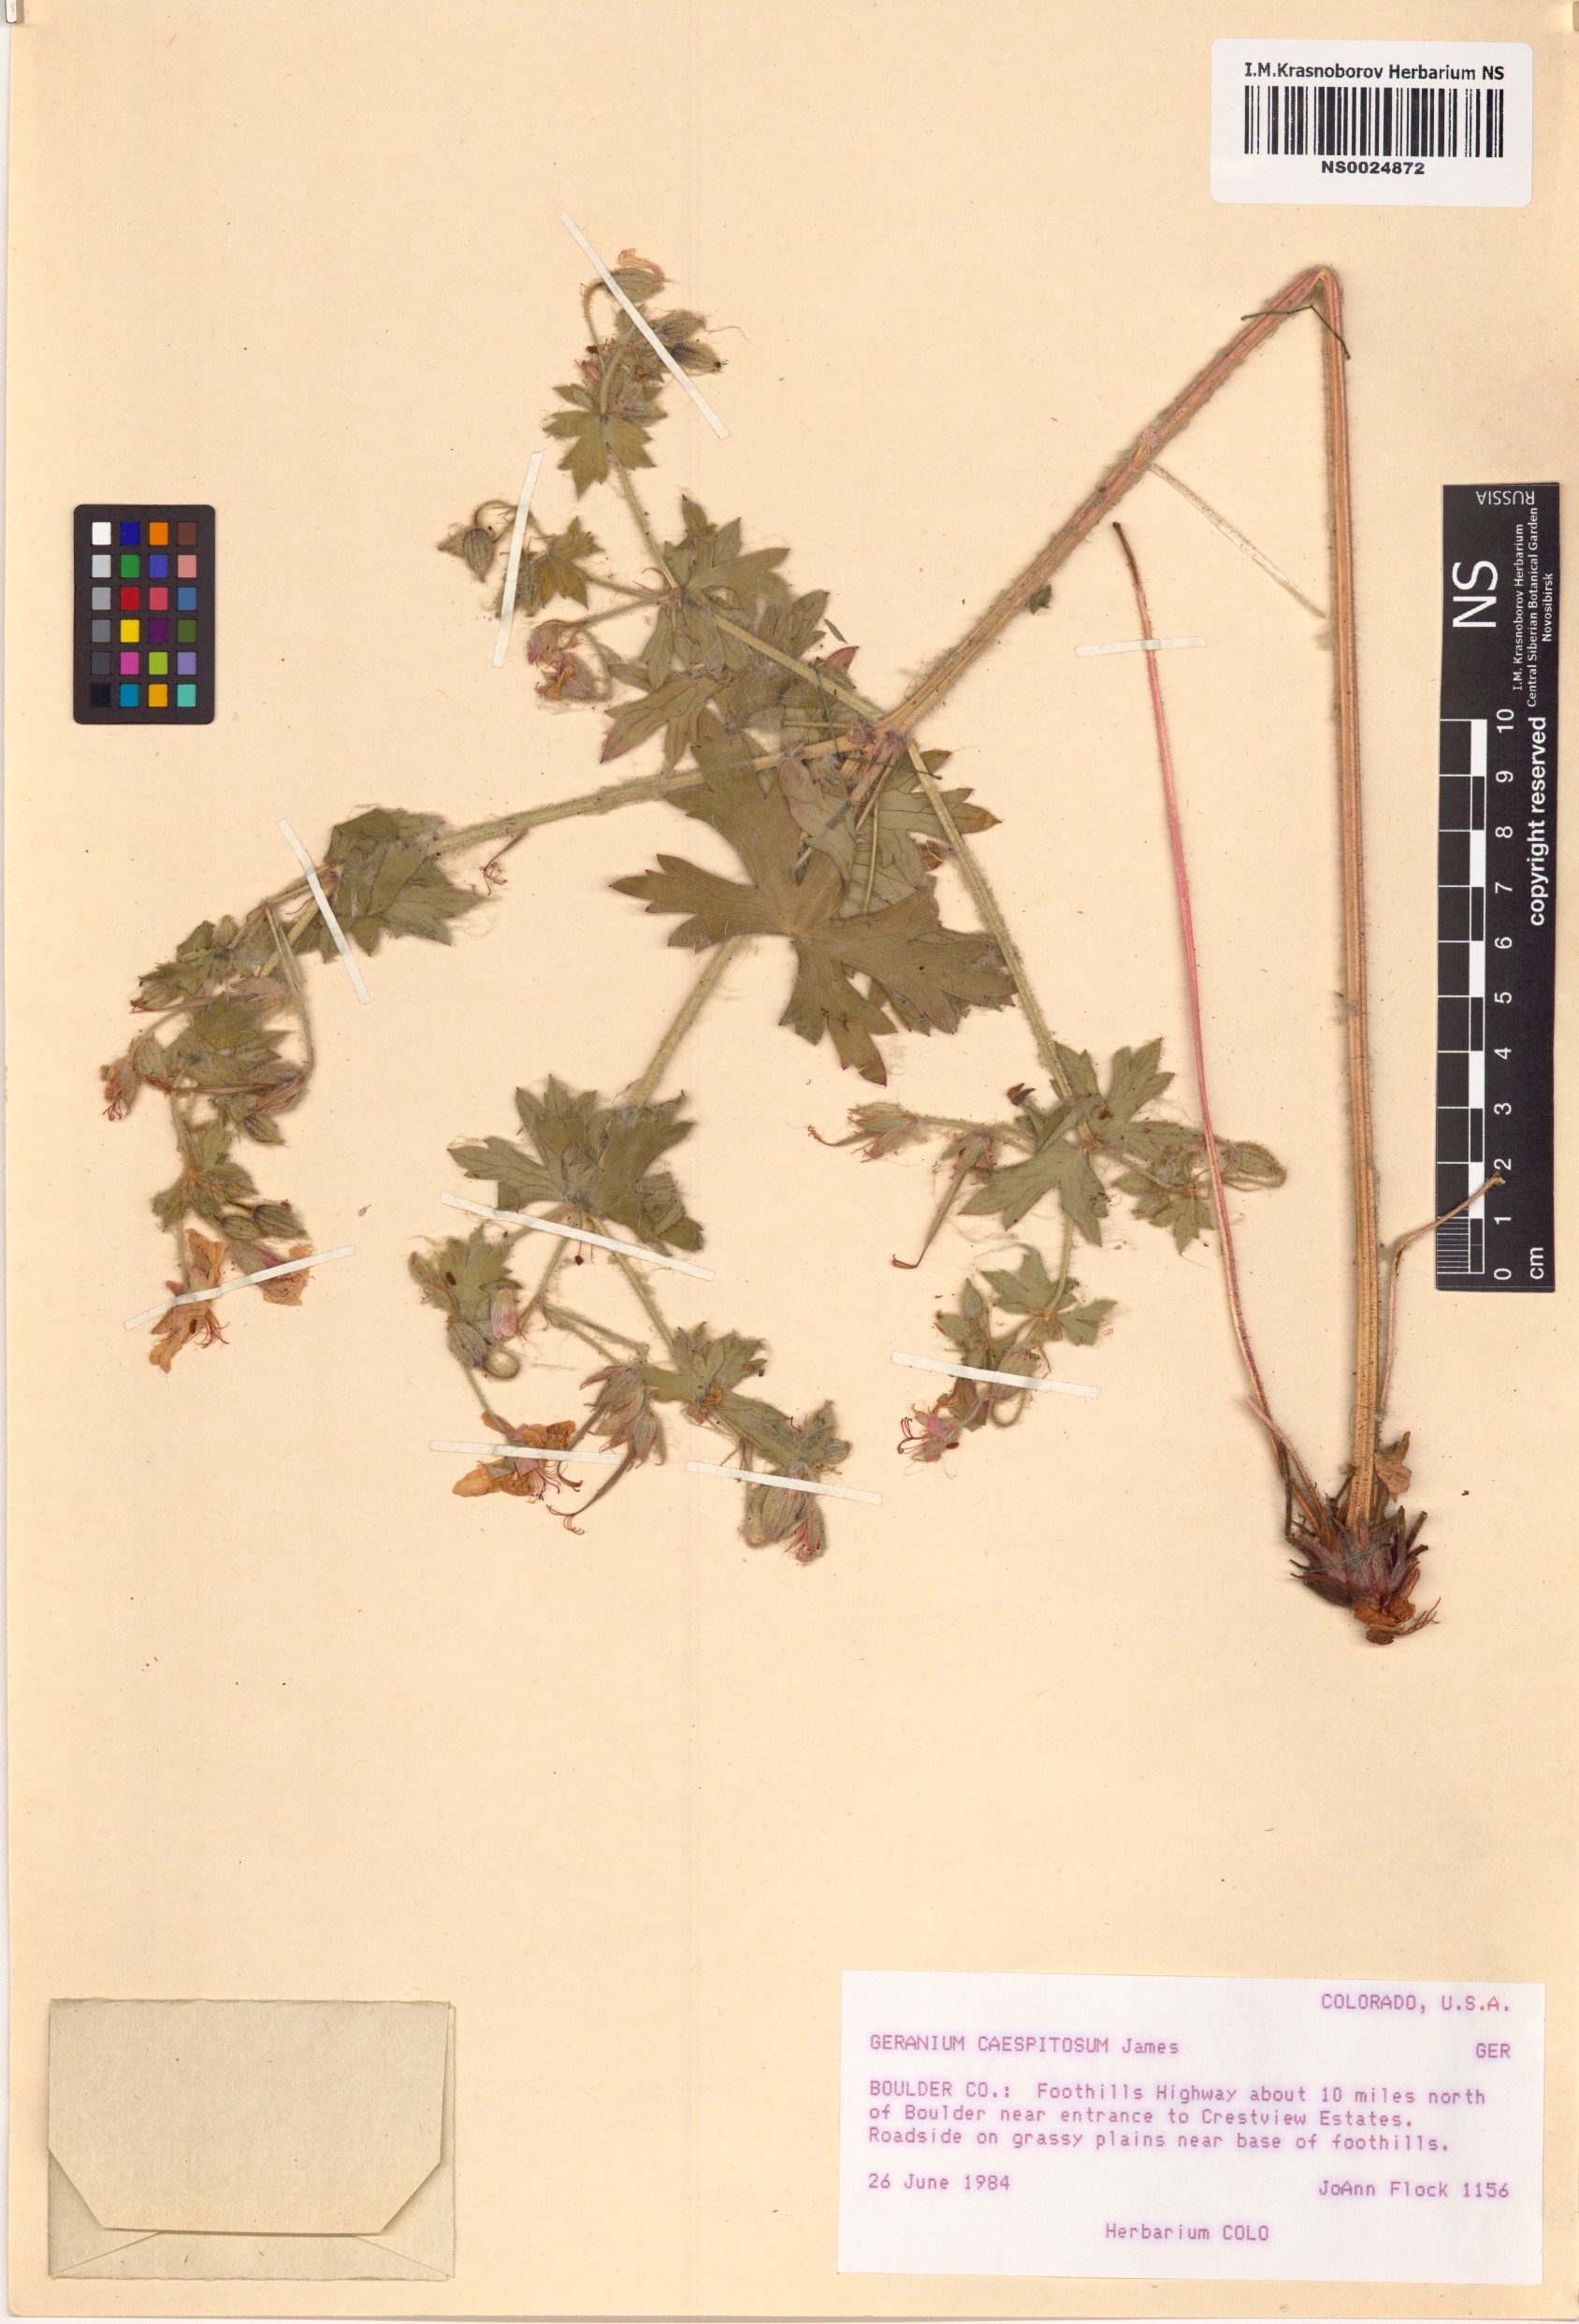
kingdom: Plantae
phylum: Tracheophyta
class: Magnoliopsida
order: Geraniales
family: Geraniaceae
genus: Geranium
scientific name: Geranium caespitosum
